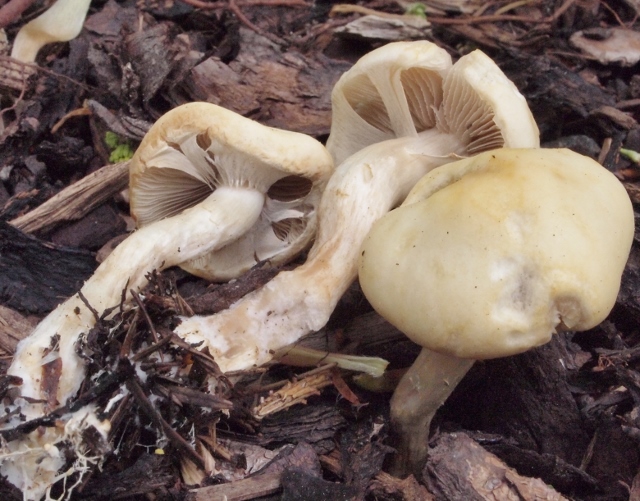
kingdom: Fungi
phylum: Basidiomycota
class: Agaricomycetes
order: Agaricales
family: Strophariaceae
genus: Agrocybe
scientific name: Agrocybe praecox
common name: tidlig agerhat
